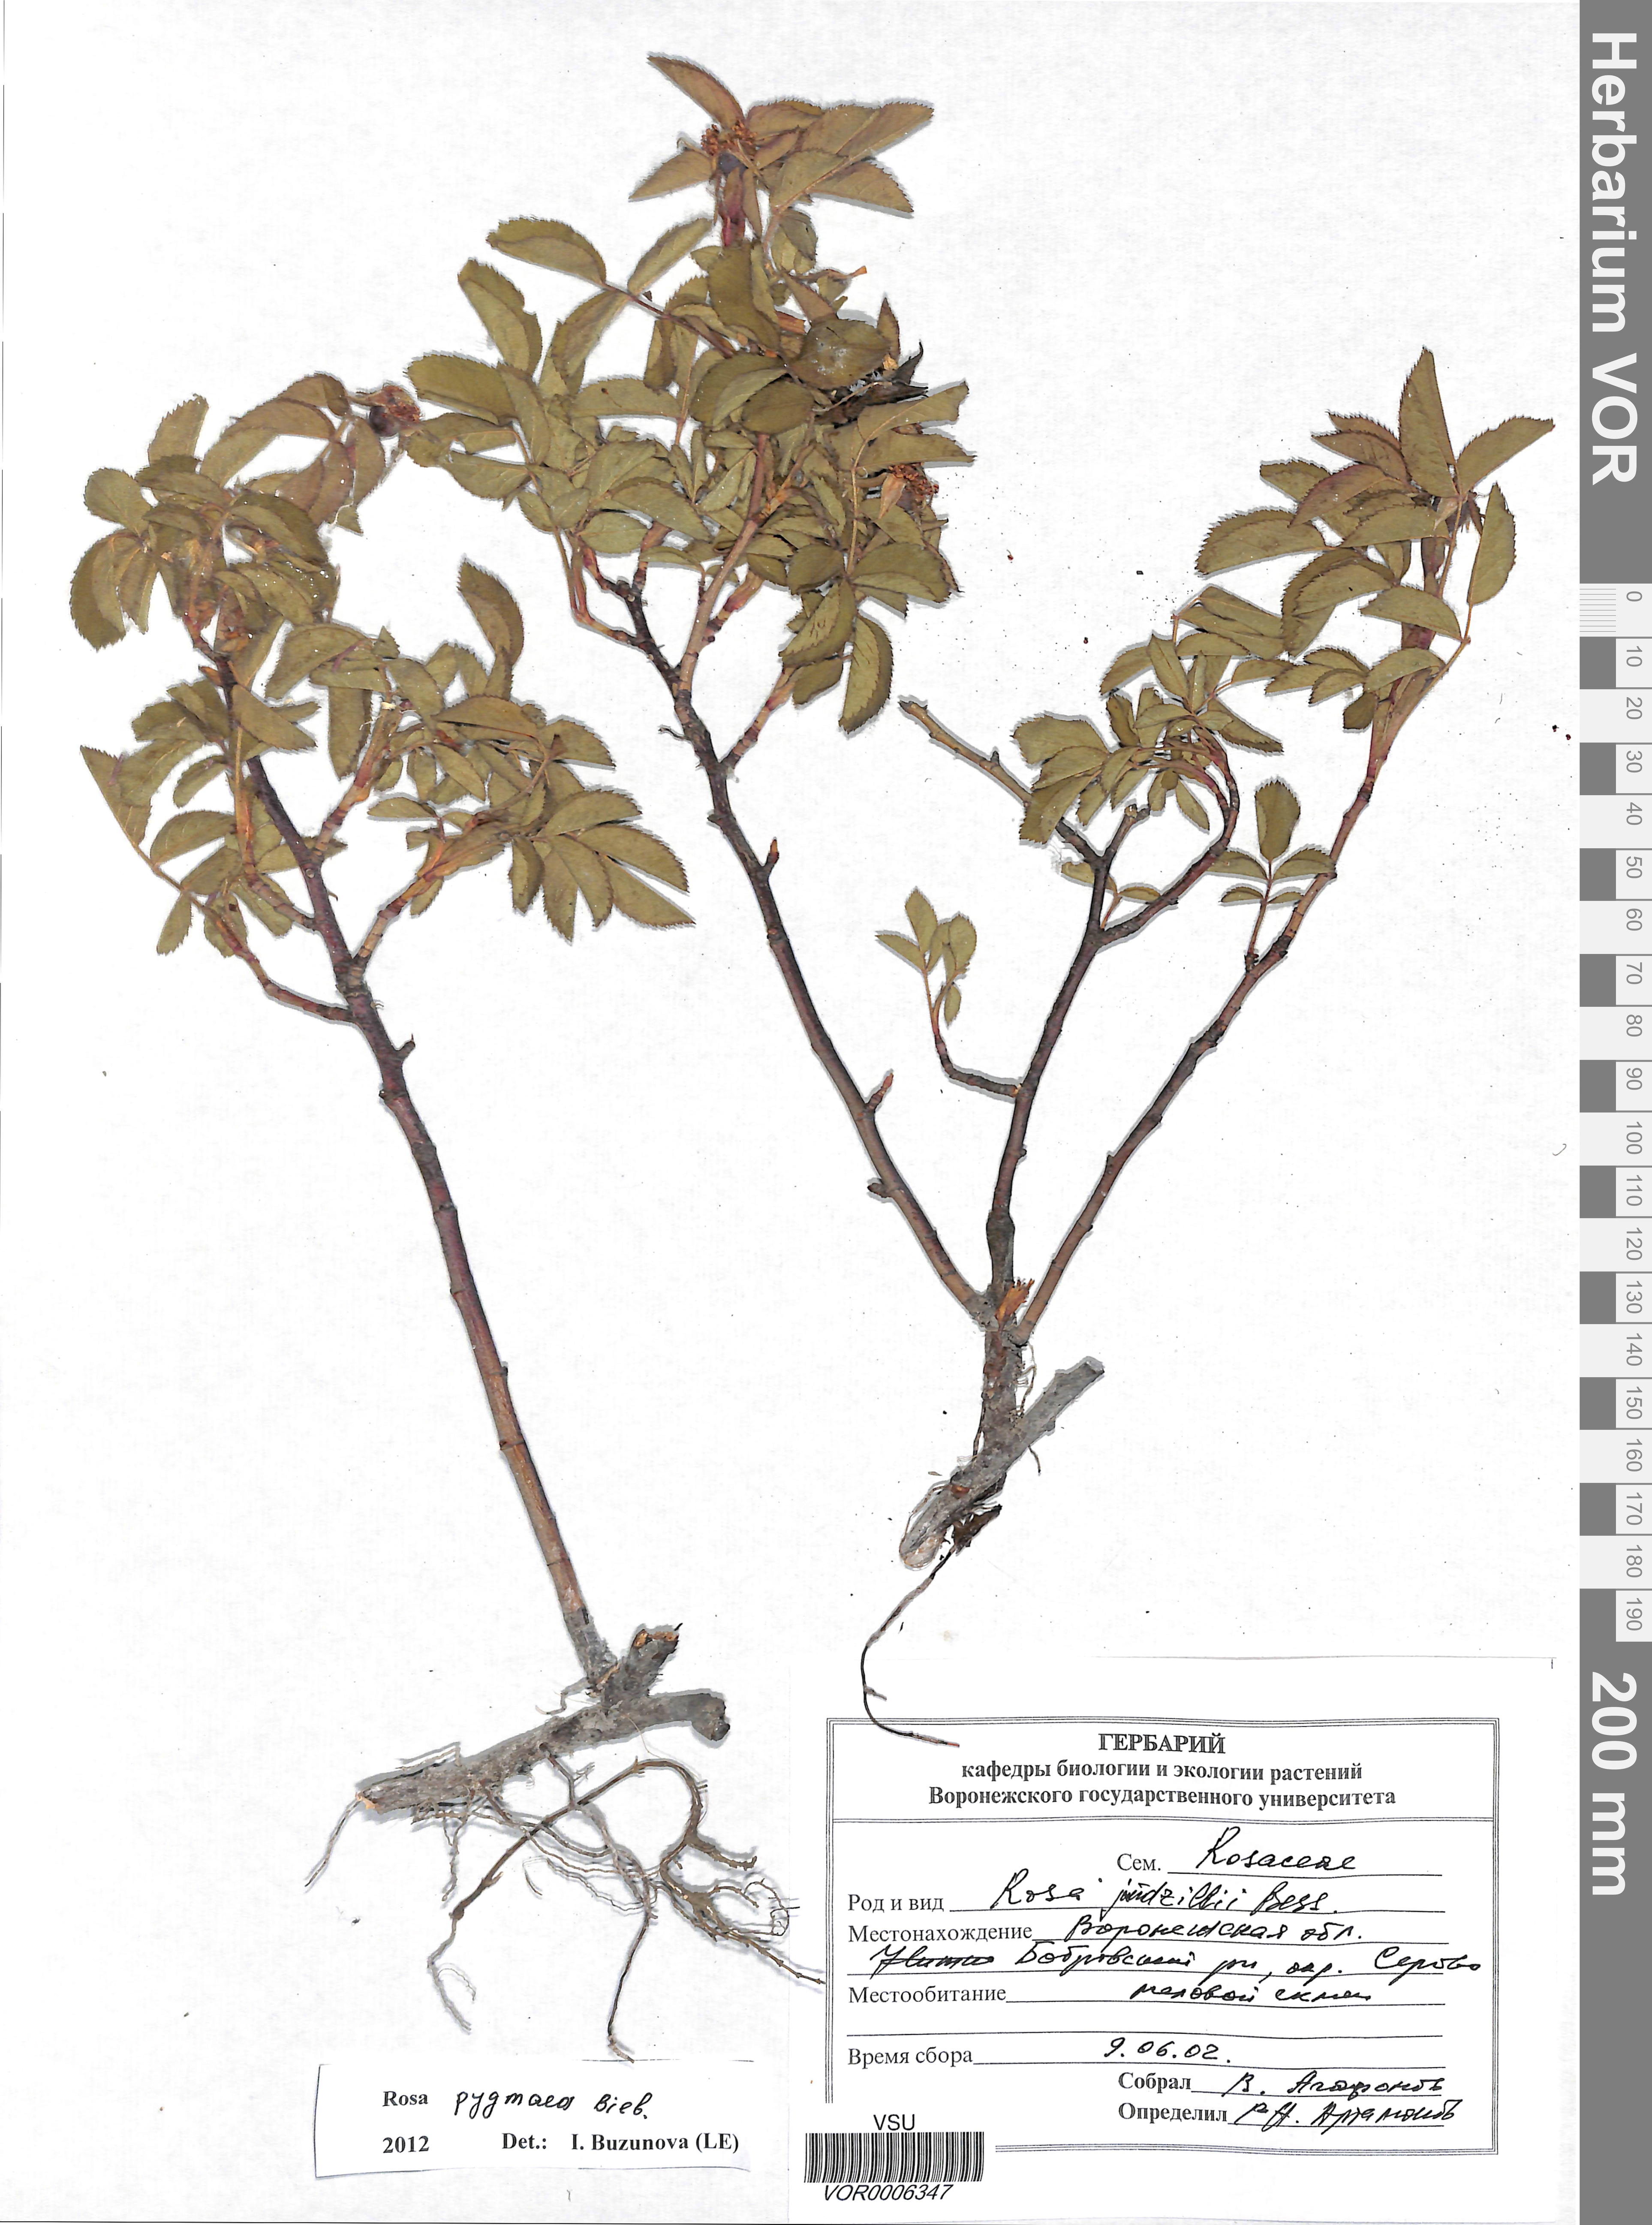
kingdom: Plantae
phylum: Tracheophyta
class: Magnoliopsida
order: Rosales
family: Rosaceae
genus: Rosa
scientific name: Rosa gallica
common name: French rose
